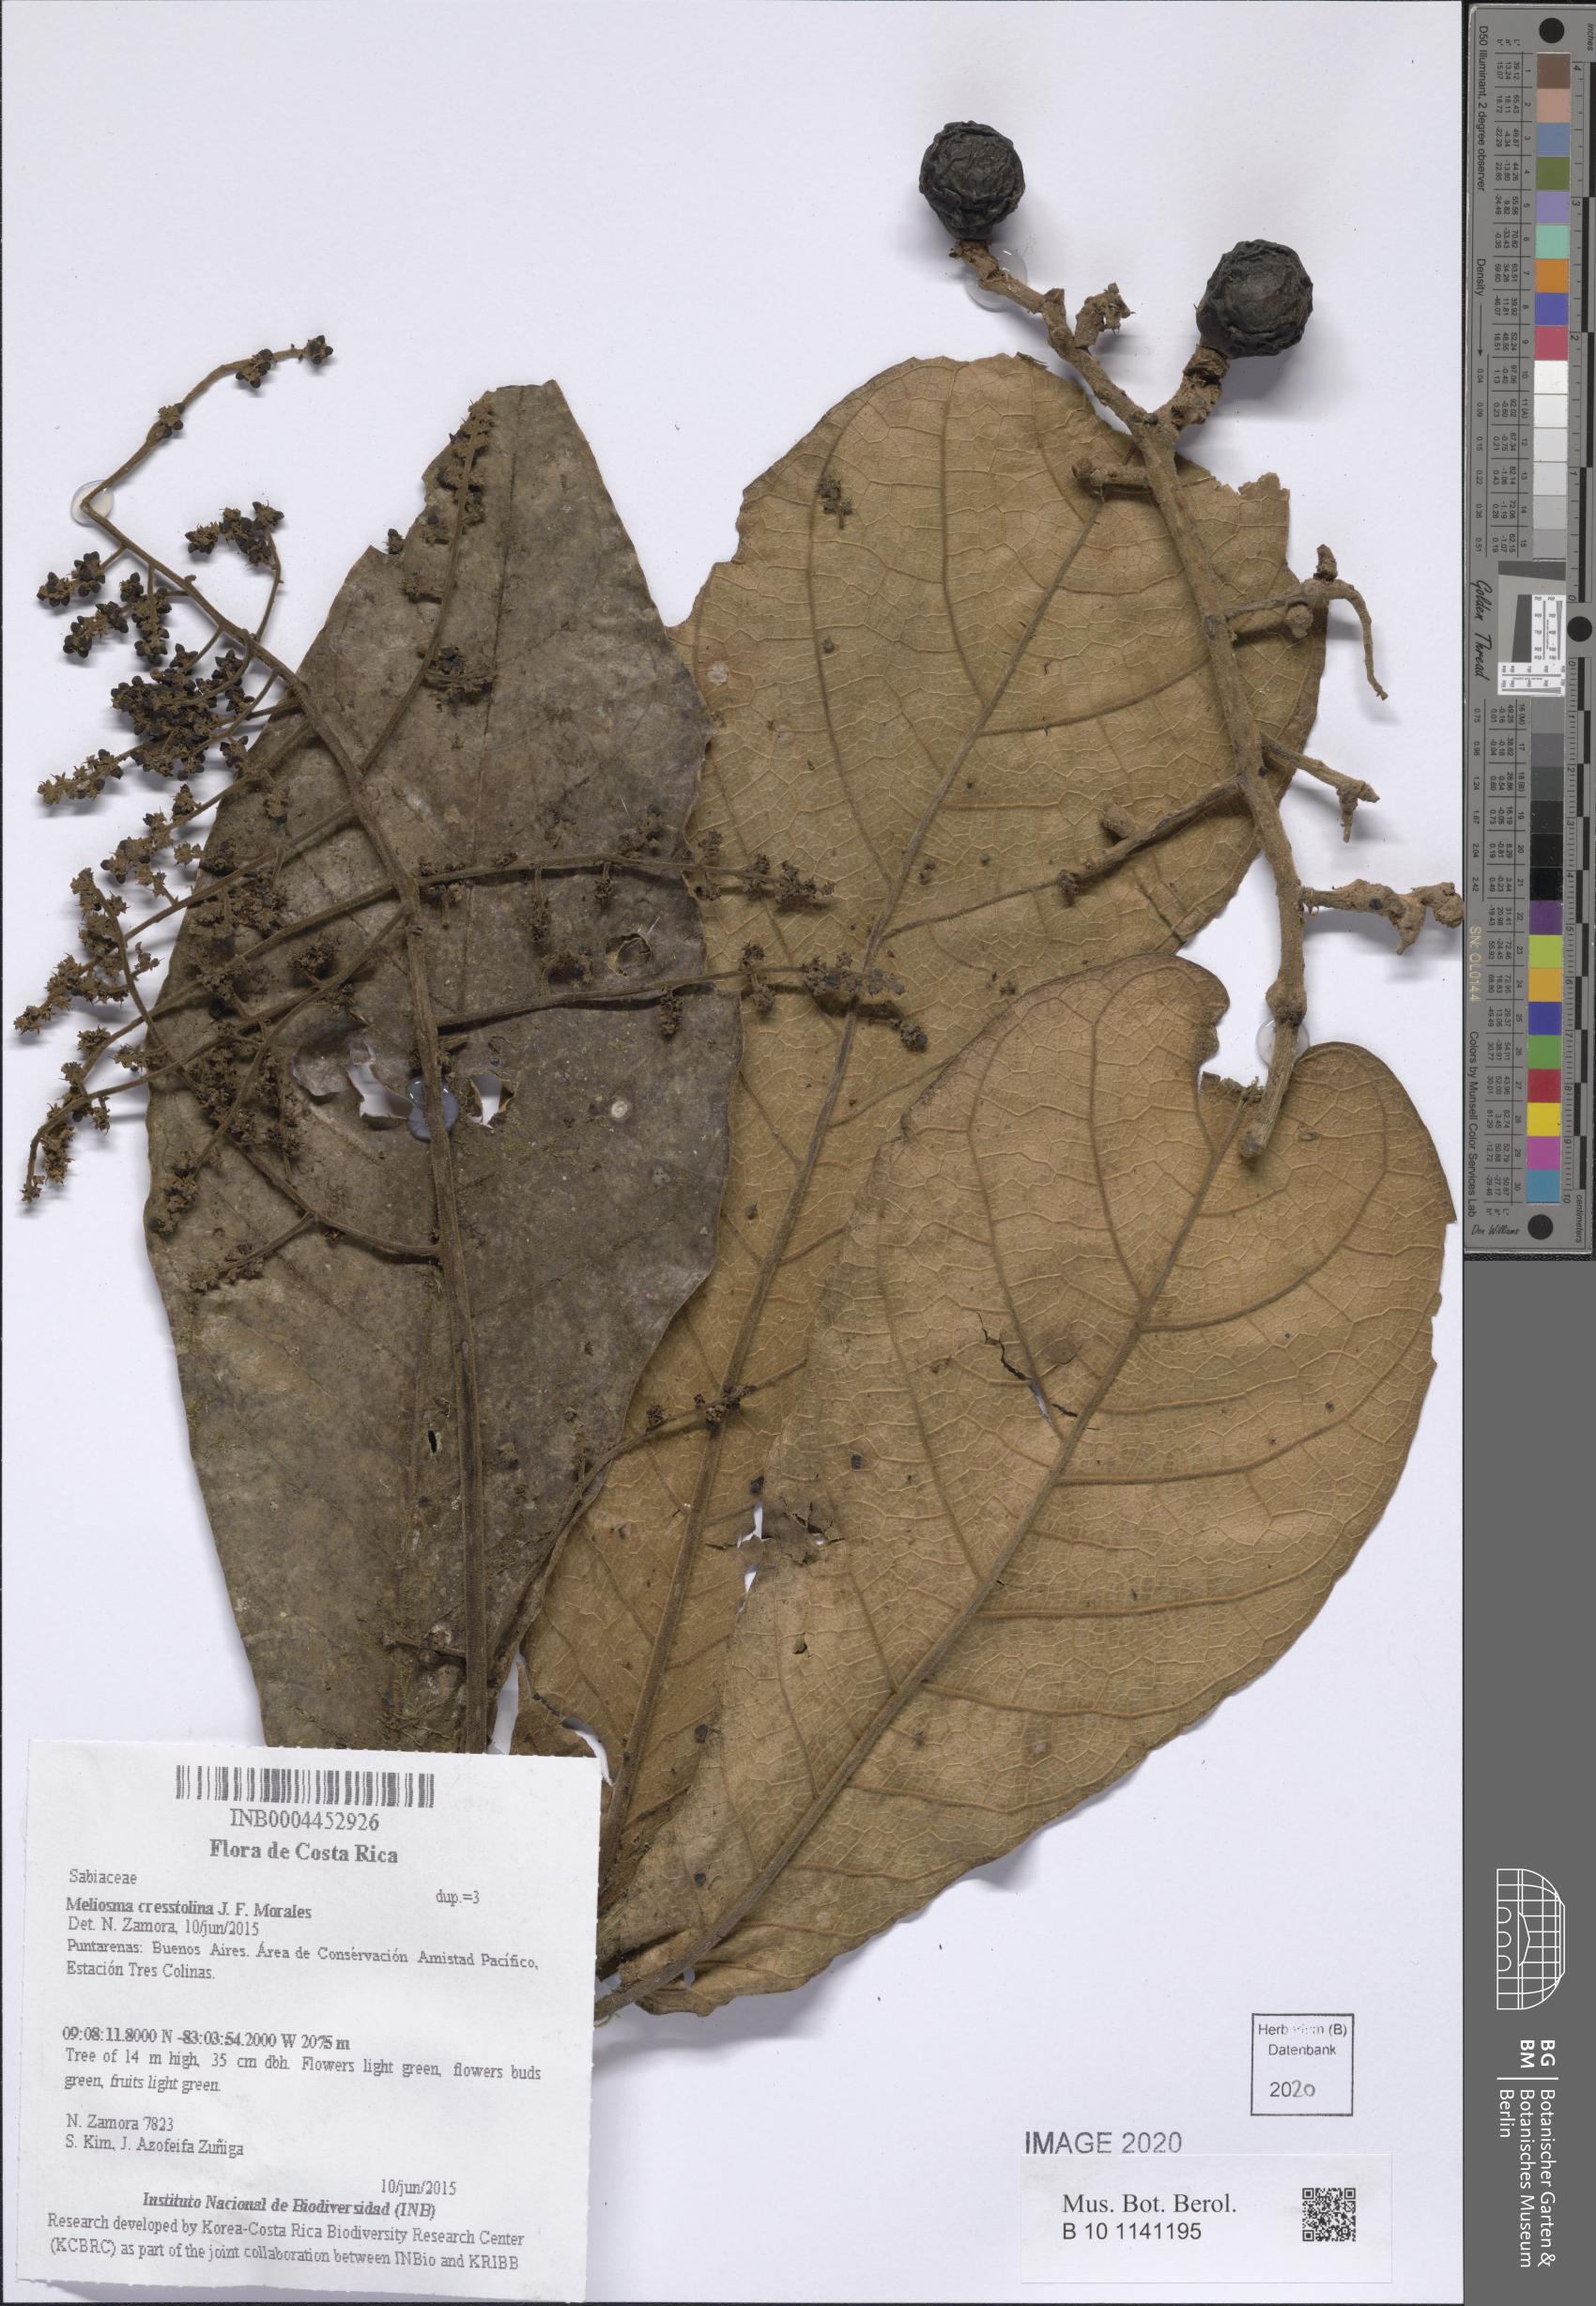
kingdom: Plantae
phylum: Tracheophyta
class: Magnoliopsida
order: Proteales
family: Sabiaceae
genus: Meliosma
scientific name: Meliosma cresstolina
